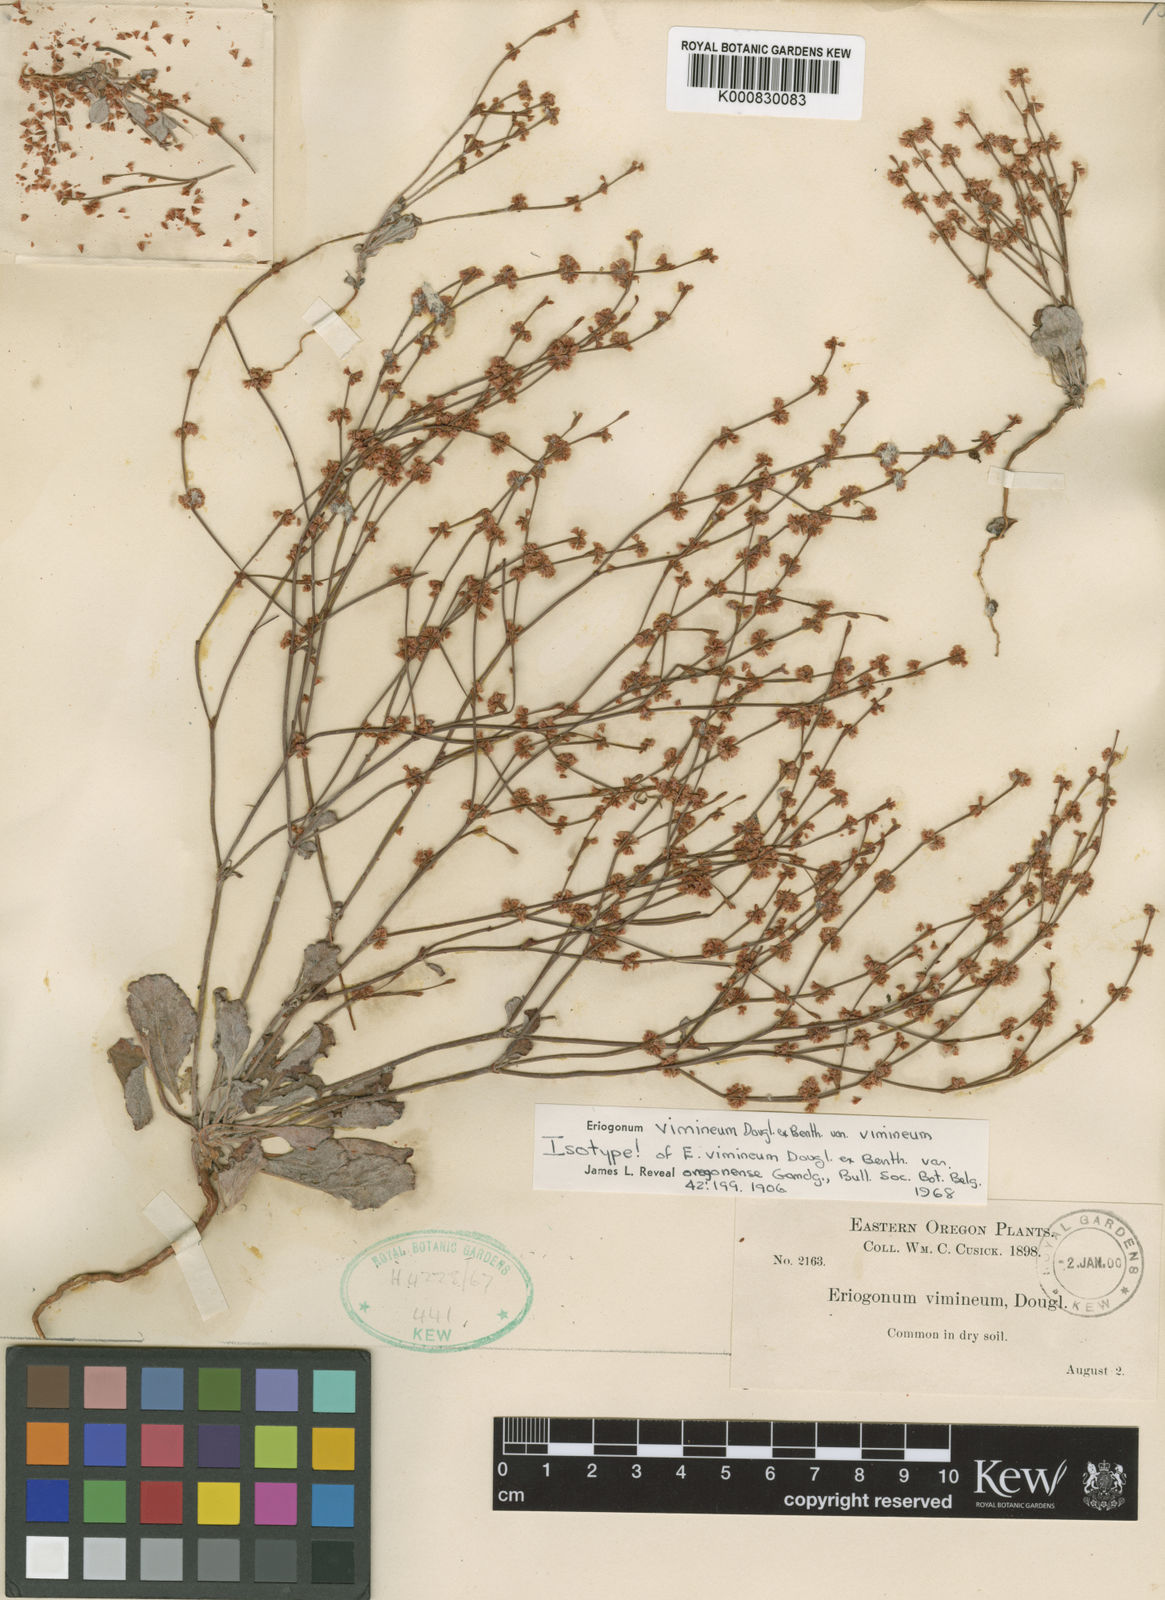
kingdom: Plantae
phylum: Tracheophyta
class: Magnoliopsida
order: Caryophyllales
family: Polygonaceae
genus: Eriogonum
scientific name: Eriogonum vimineum
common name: Wicker buckwheat
